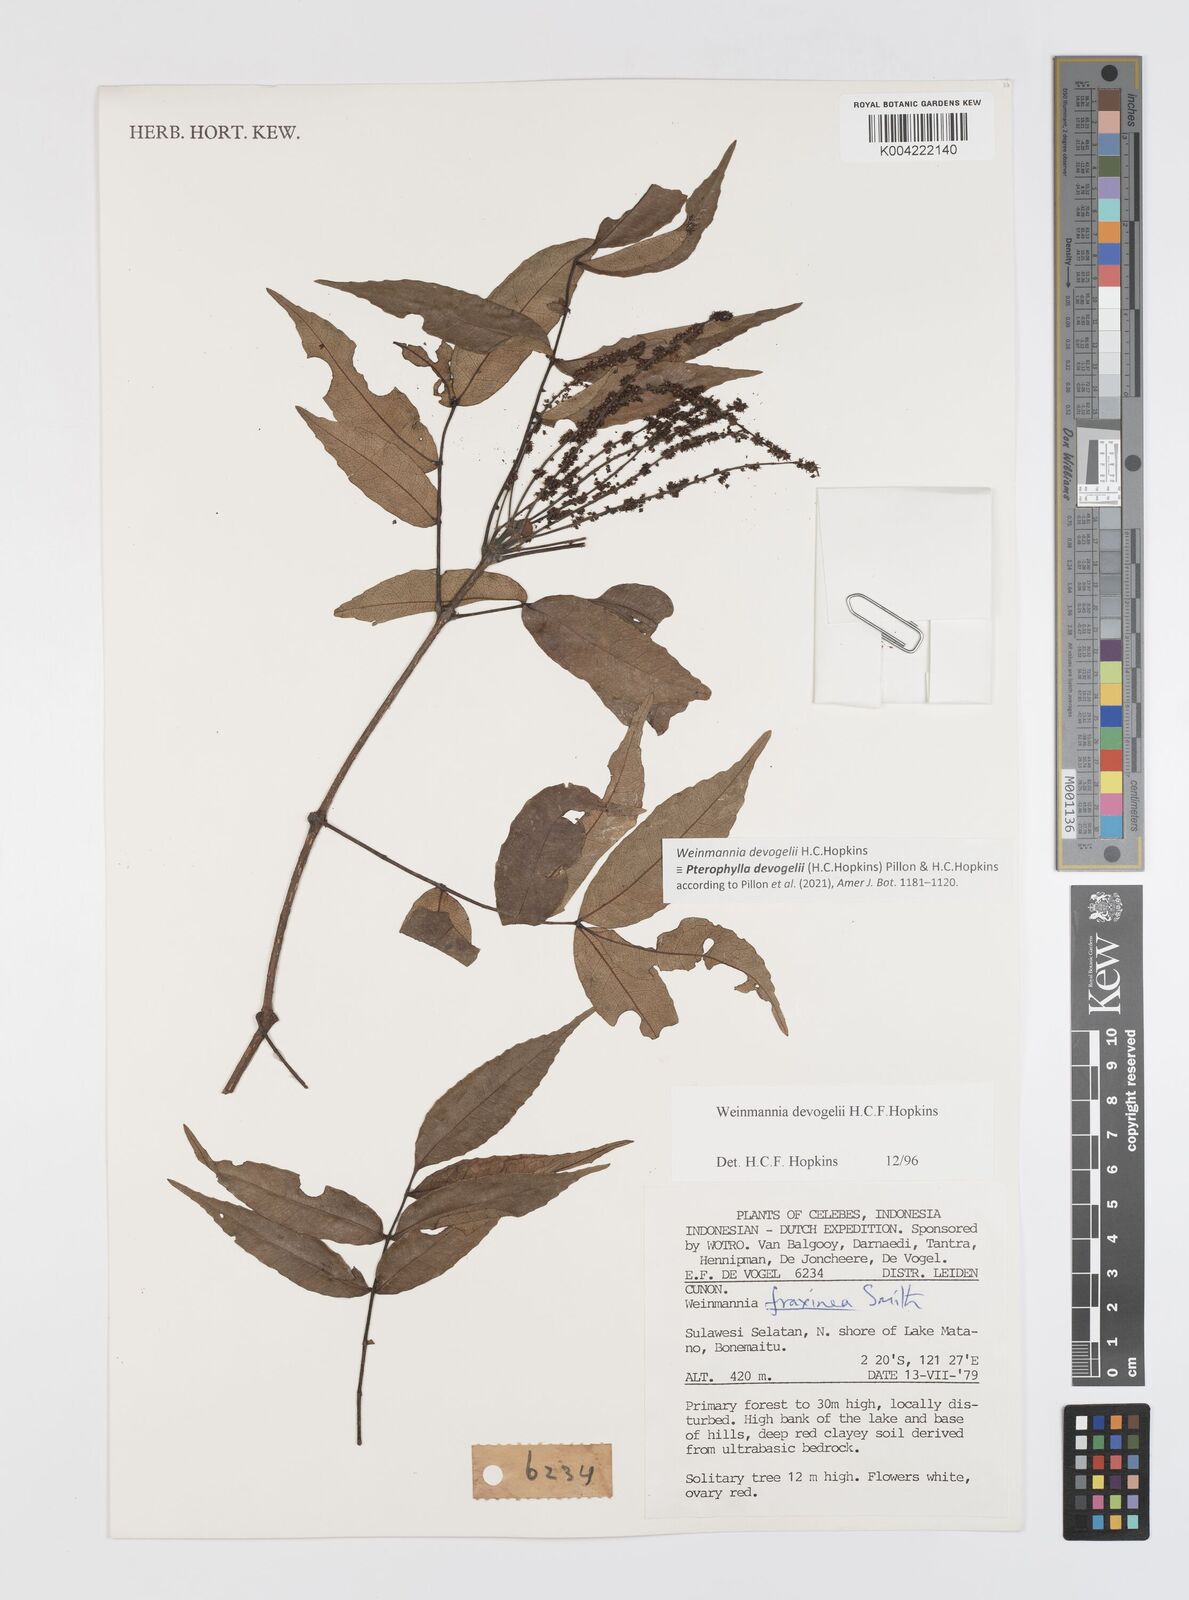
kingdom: Plantae
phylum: Tracheophyta
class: Magnoliopsida
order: Oxalidales
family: Cunoniaceae
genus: Pterophylla
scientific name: Pterophylla devogelii
